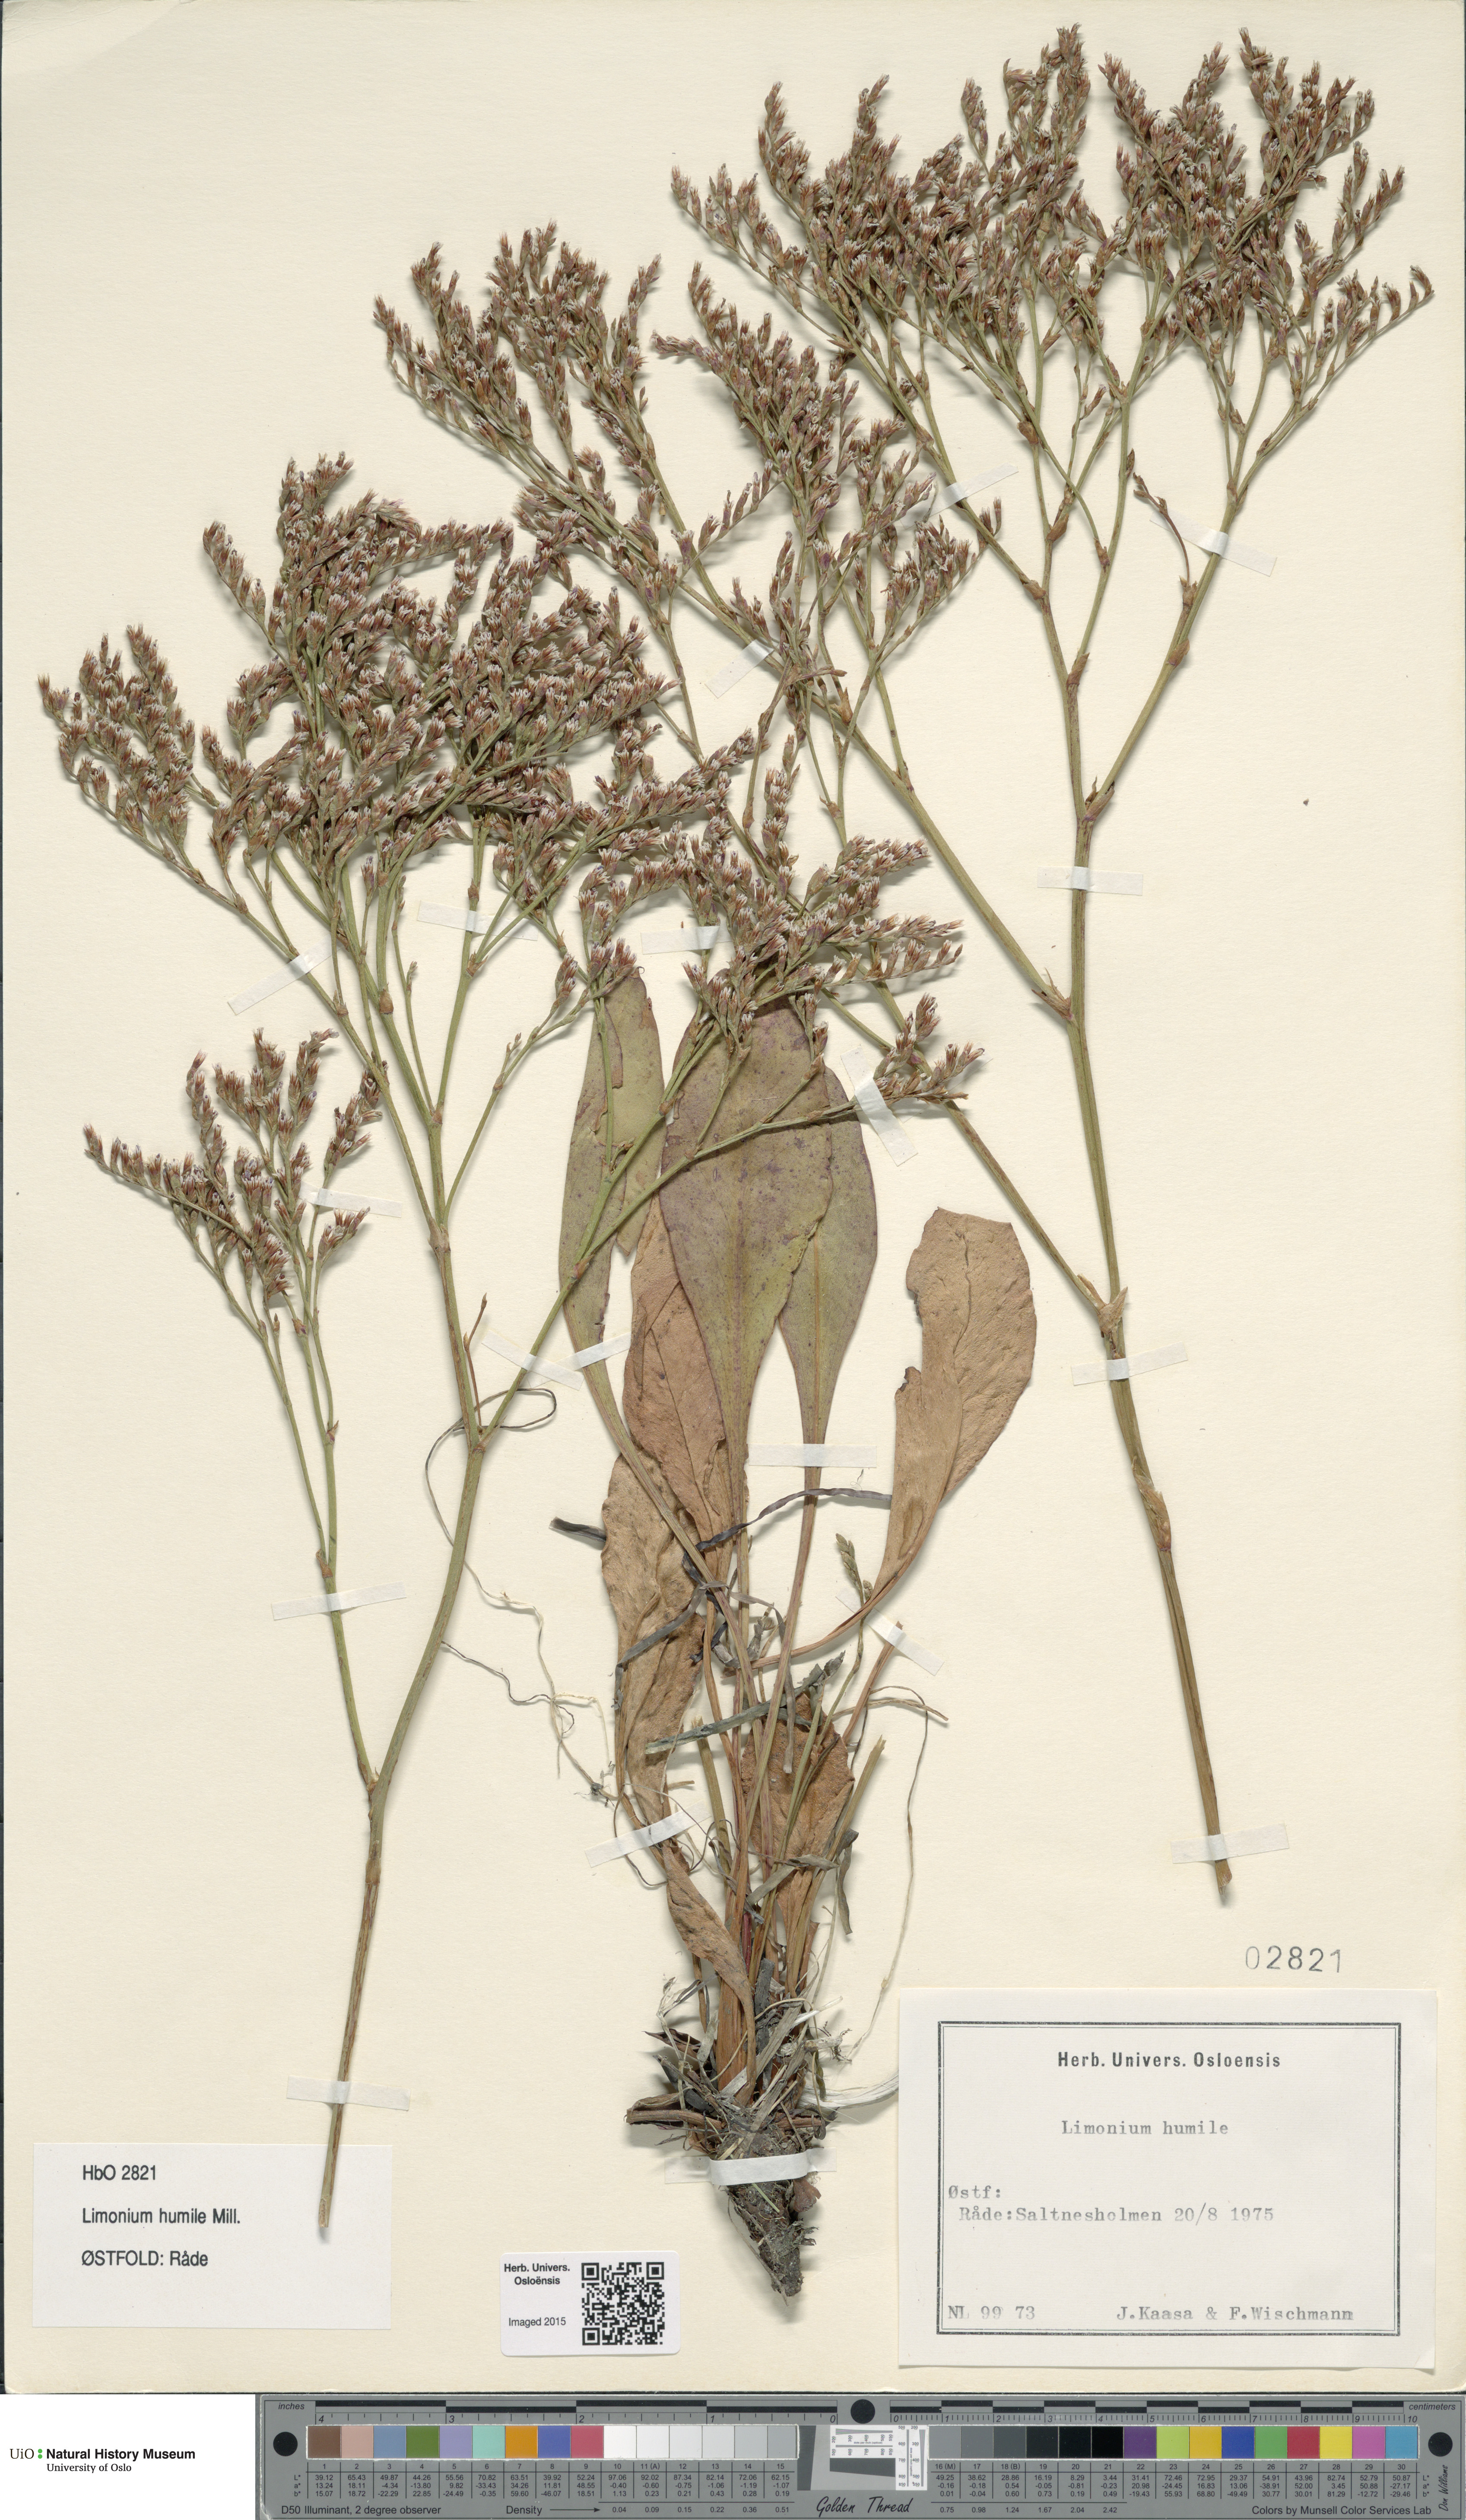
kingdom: Plantae
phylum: Tracheophyta
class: Magnoliopsida
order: Caryophyllales
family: Plumbaginaceae
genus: Limonium
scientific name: Limonium humile
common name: Lax-flowered sea-lavender
